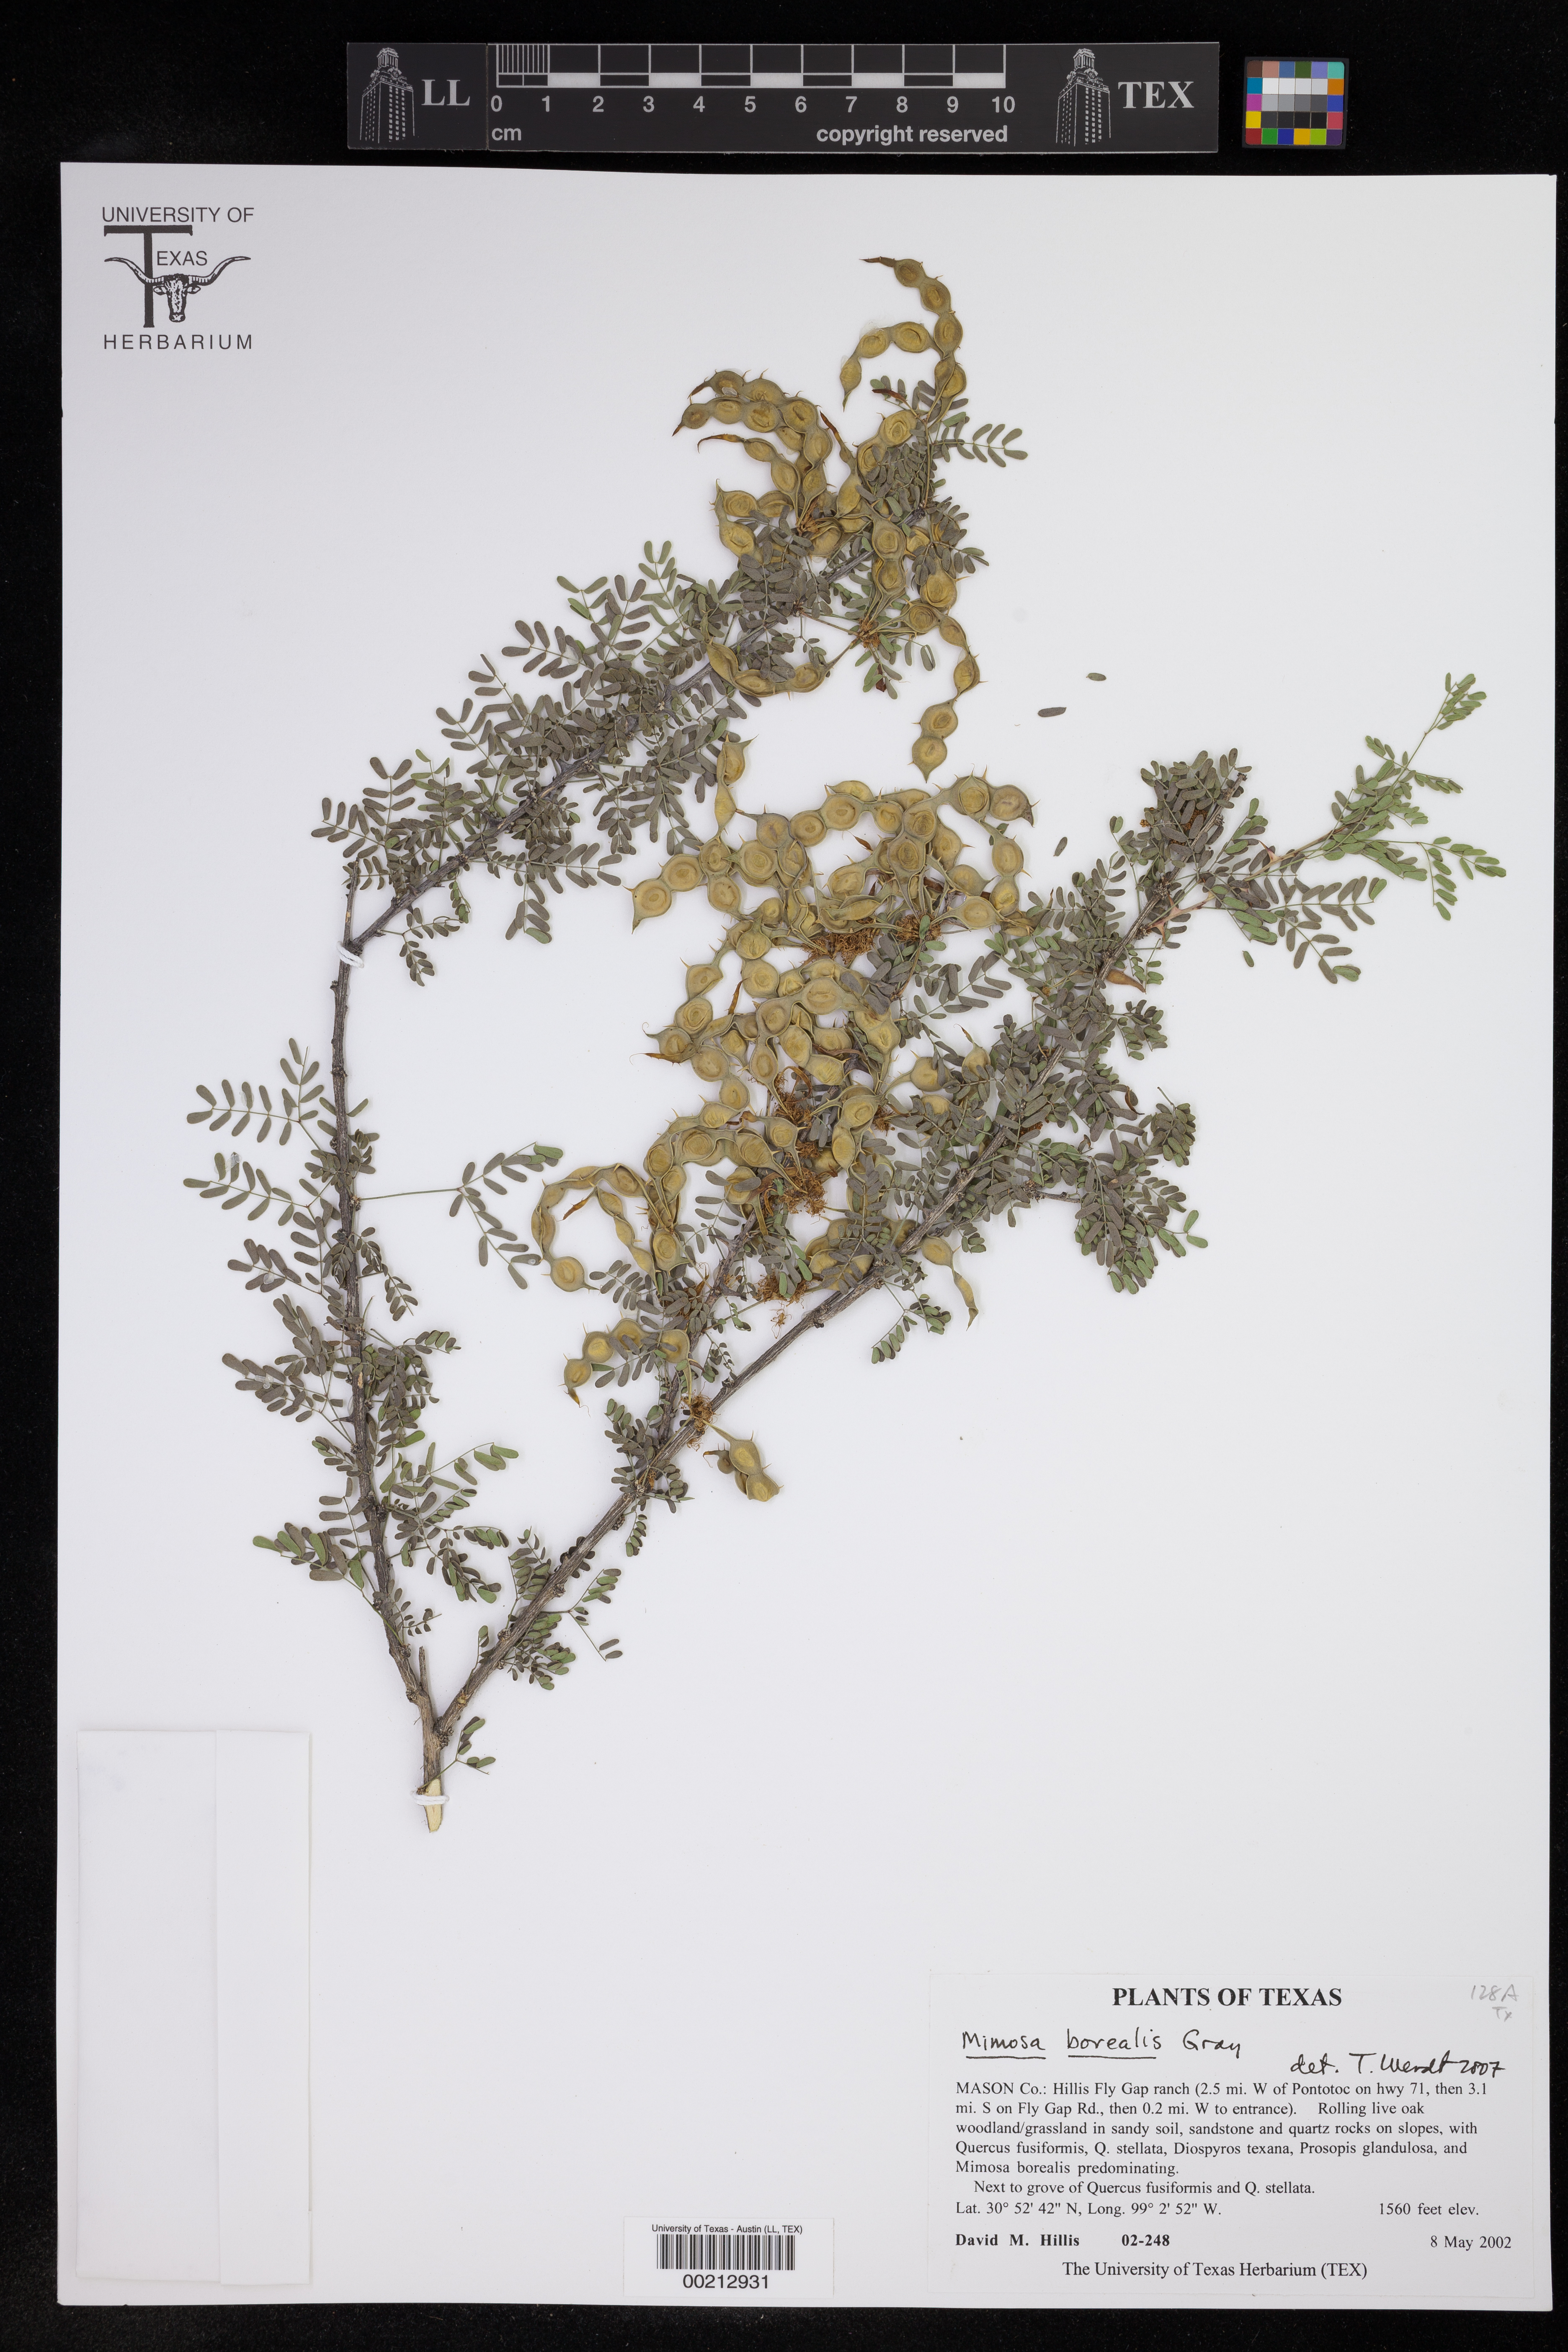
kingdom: Plantae
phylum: Tracheophyta
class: Magnoliopsida
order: Fabales
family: Fabaceae
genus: Mimosa
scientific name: Mimosa borealis
